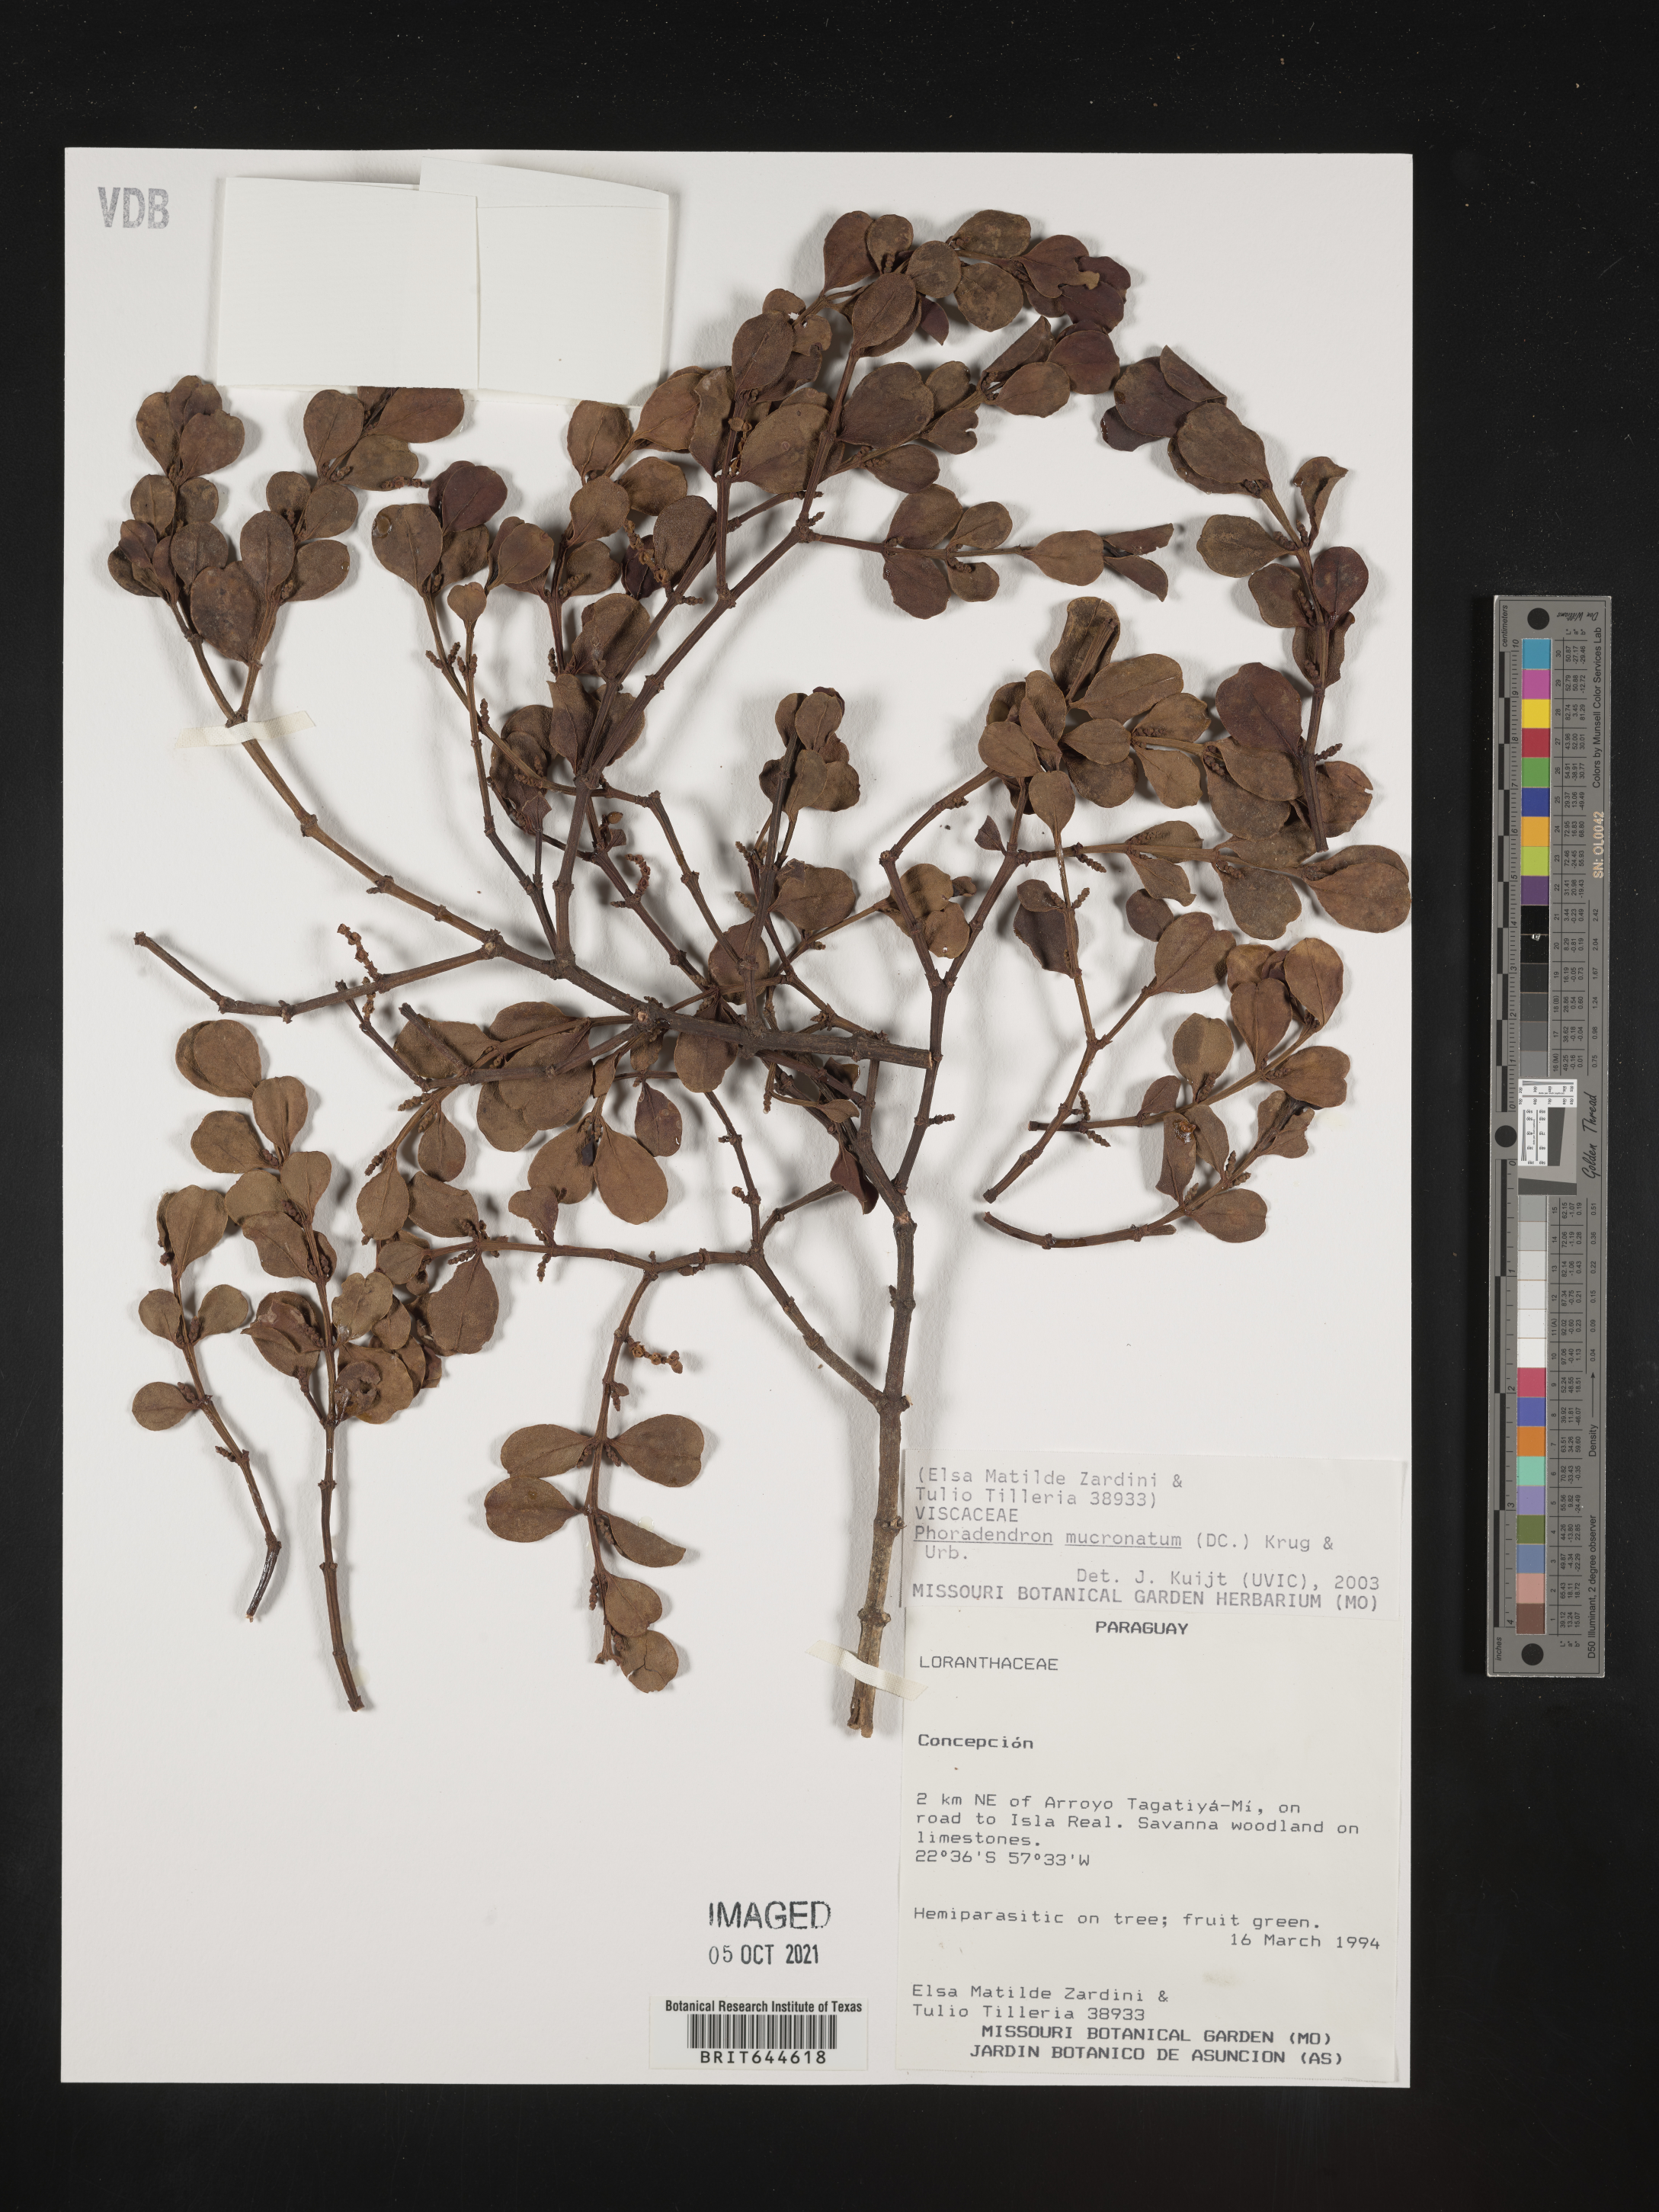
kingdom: Plantae
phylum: Tracheophyta
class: Magnoliopsida
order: Santalales
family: Viscaceae
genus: Phoradendron
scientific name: Phoradendron
